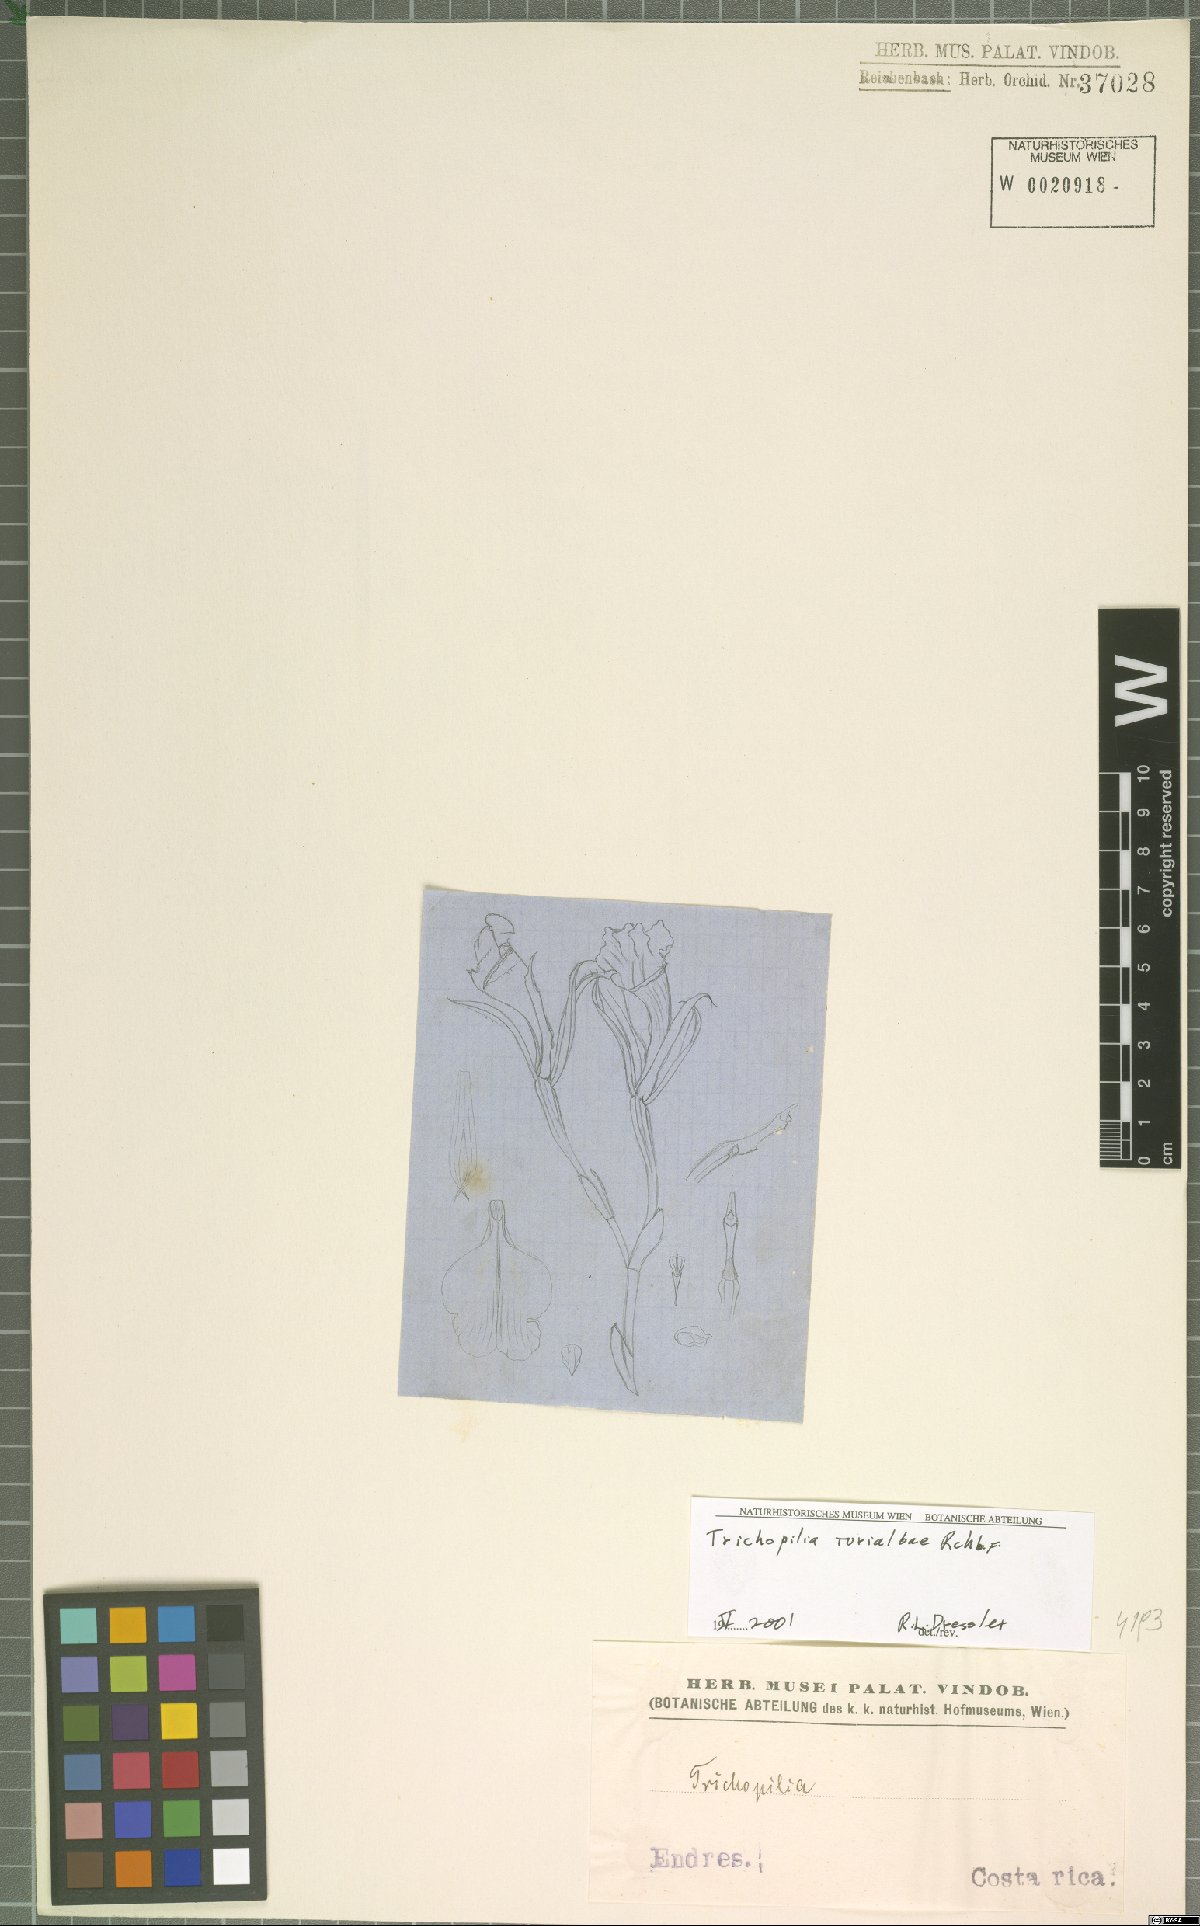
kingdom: Plantae
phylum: Tracheophyta
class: Liliopsida
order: Asparagales
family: Orchidaceae
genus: Trichopilia
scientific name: Trichopilia turialbae
